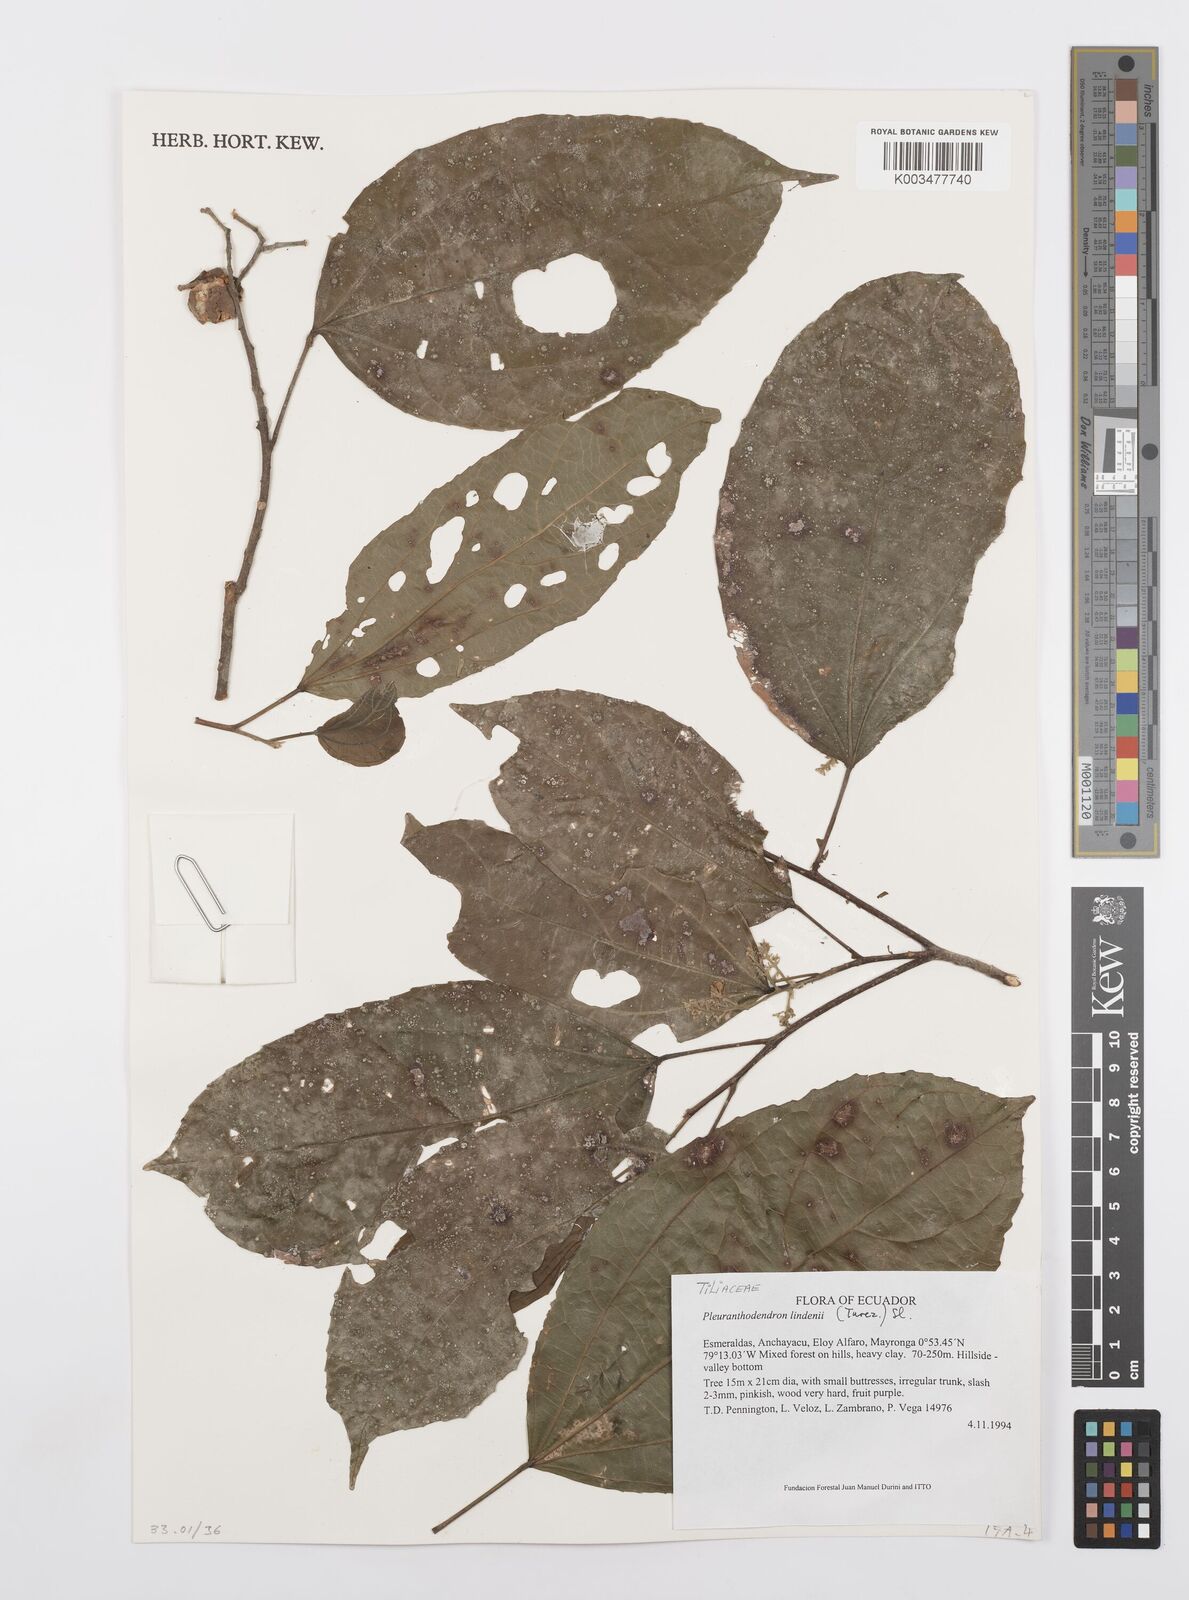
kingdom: Plantae
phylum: Tracheophyta
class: Magnoliopsida
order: Malpighiales
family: Salicaceae
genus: Pleuranthodendron
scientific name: Pleuranthodendron lindenii
